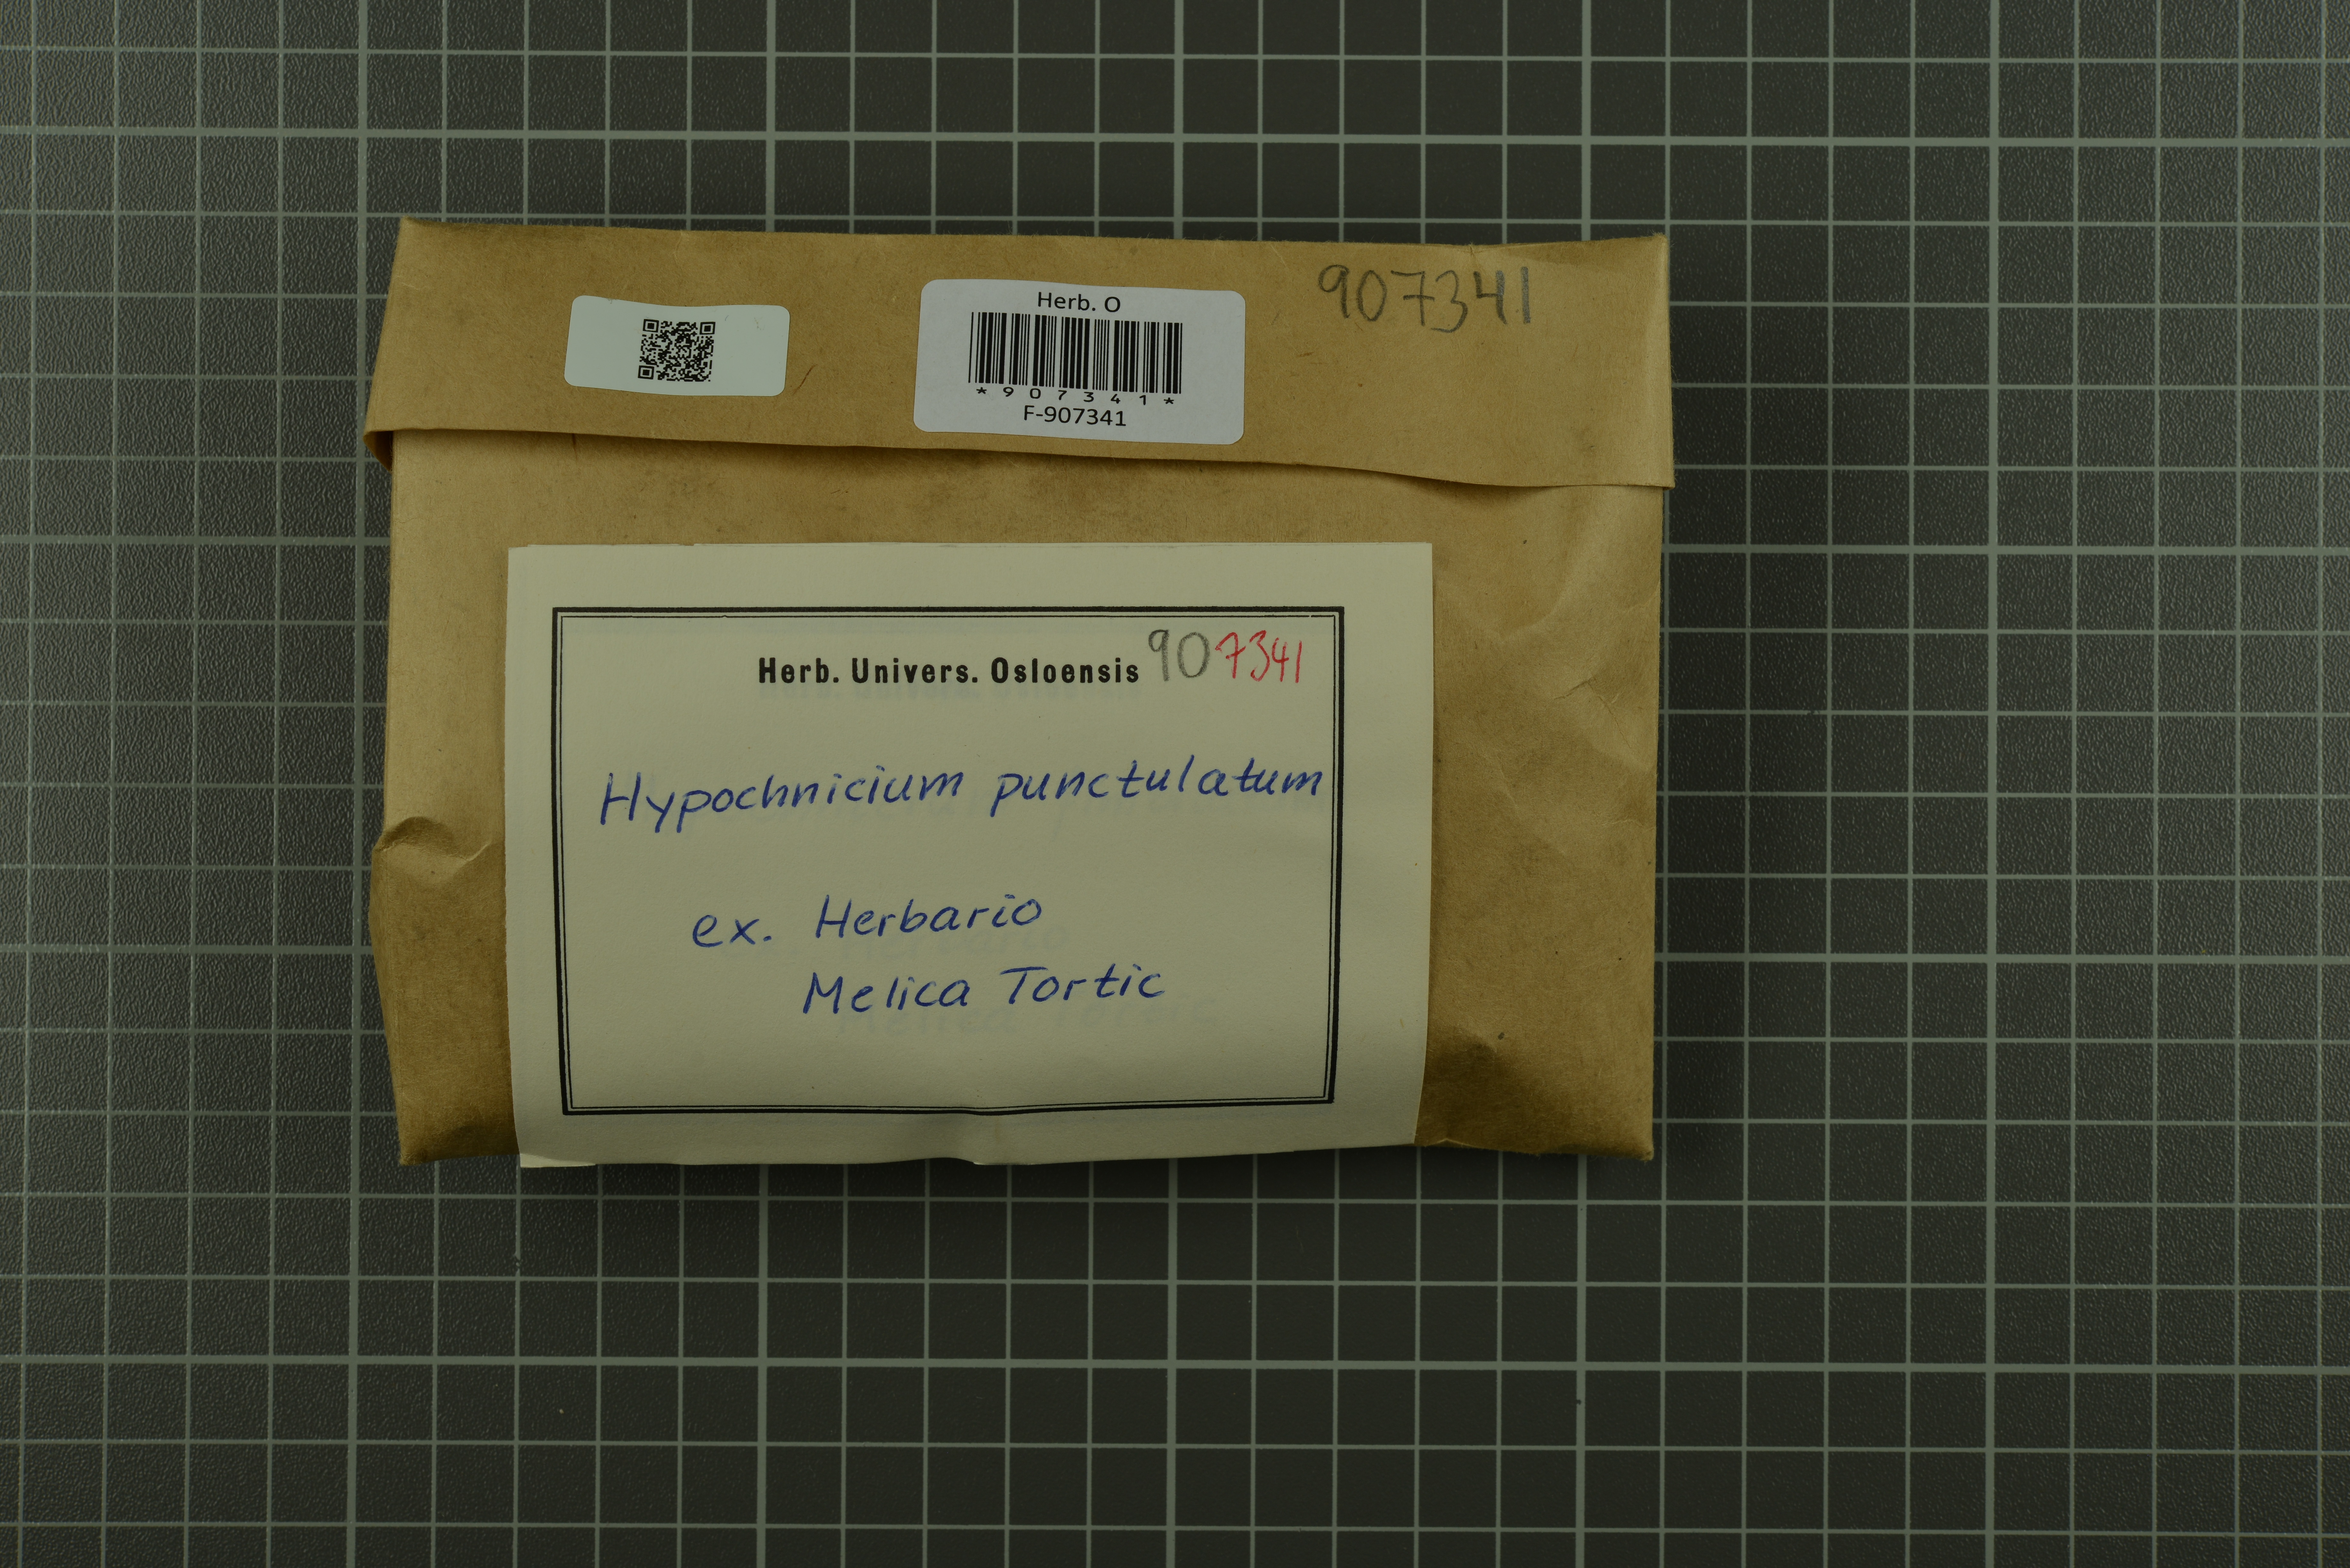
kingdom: Fungi
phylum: Basidiomycota
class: Agaricomycetes
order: Polyporales
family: Meruliaceae
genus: Hypochnicium
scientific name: Hypochnicium punctulatum
